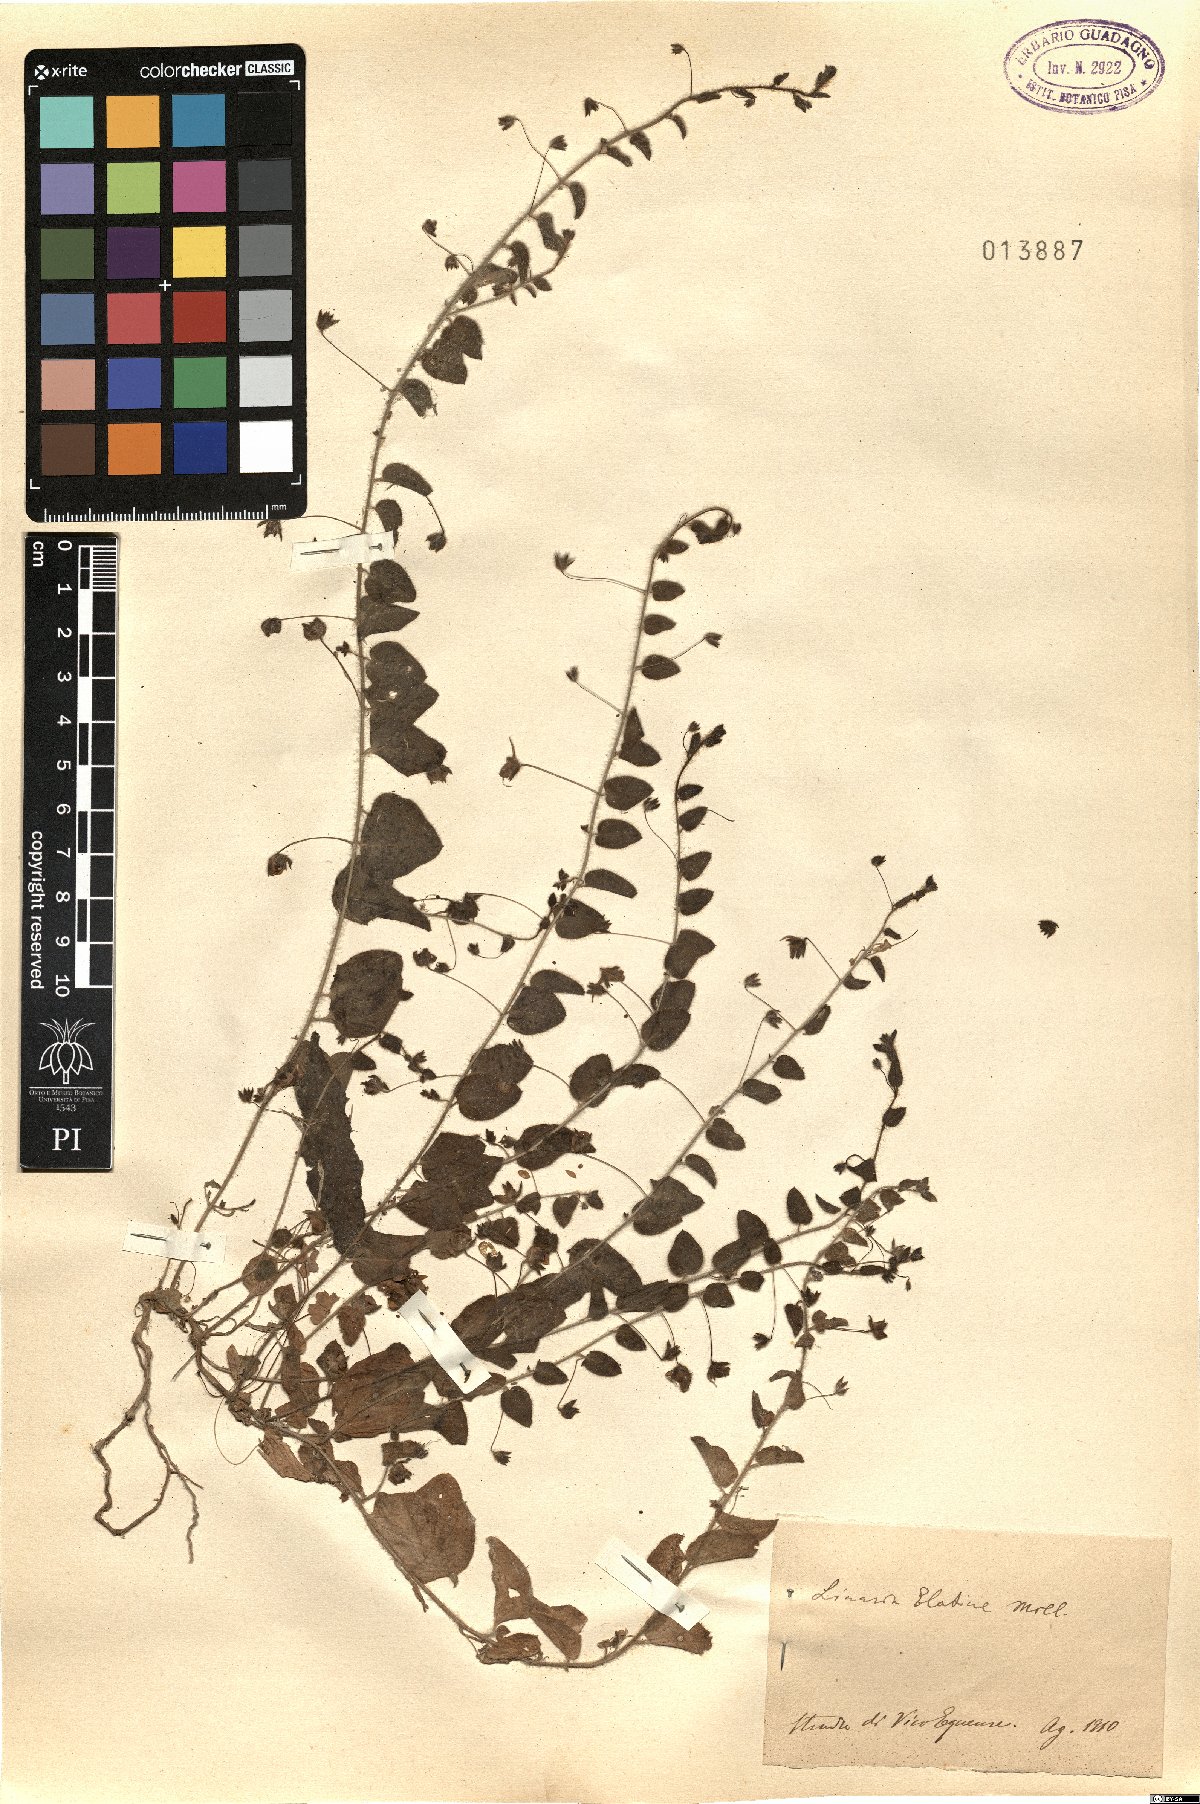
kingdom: Plantae
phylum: Tracheophyta
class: Magnoliopsida
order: Lamiales
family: Plantaginaceae
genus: Kickxia
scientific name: Kickxia elatine
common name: Sharp-leaved fluellen
